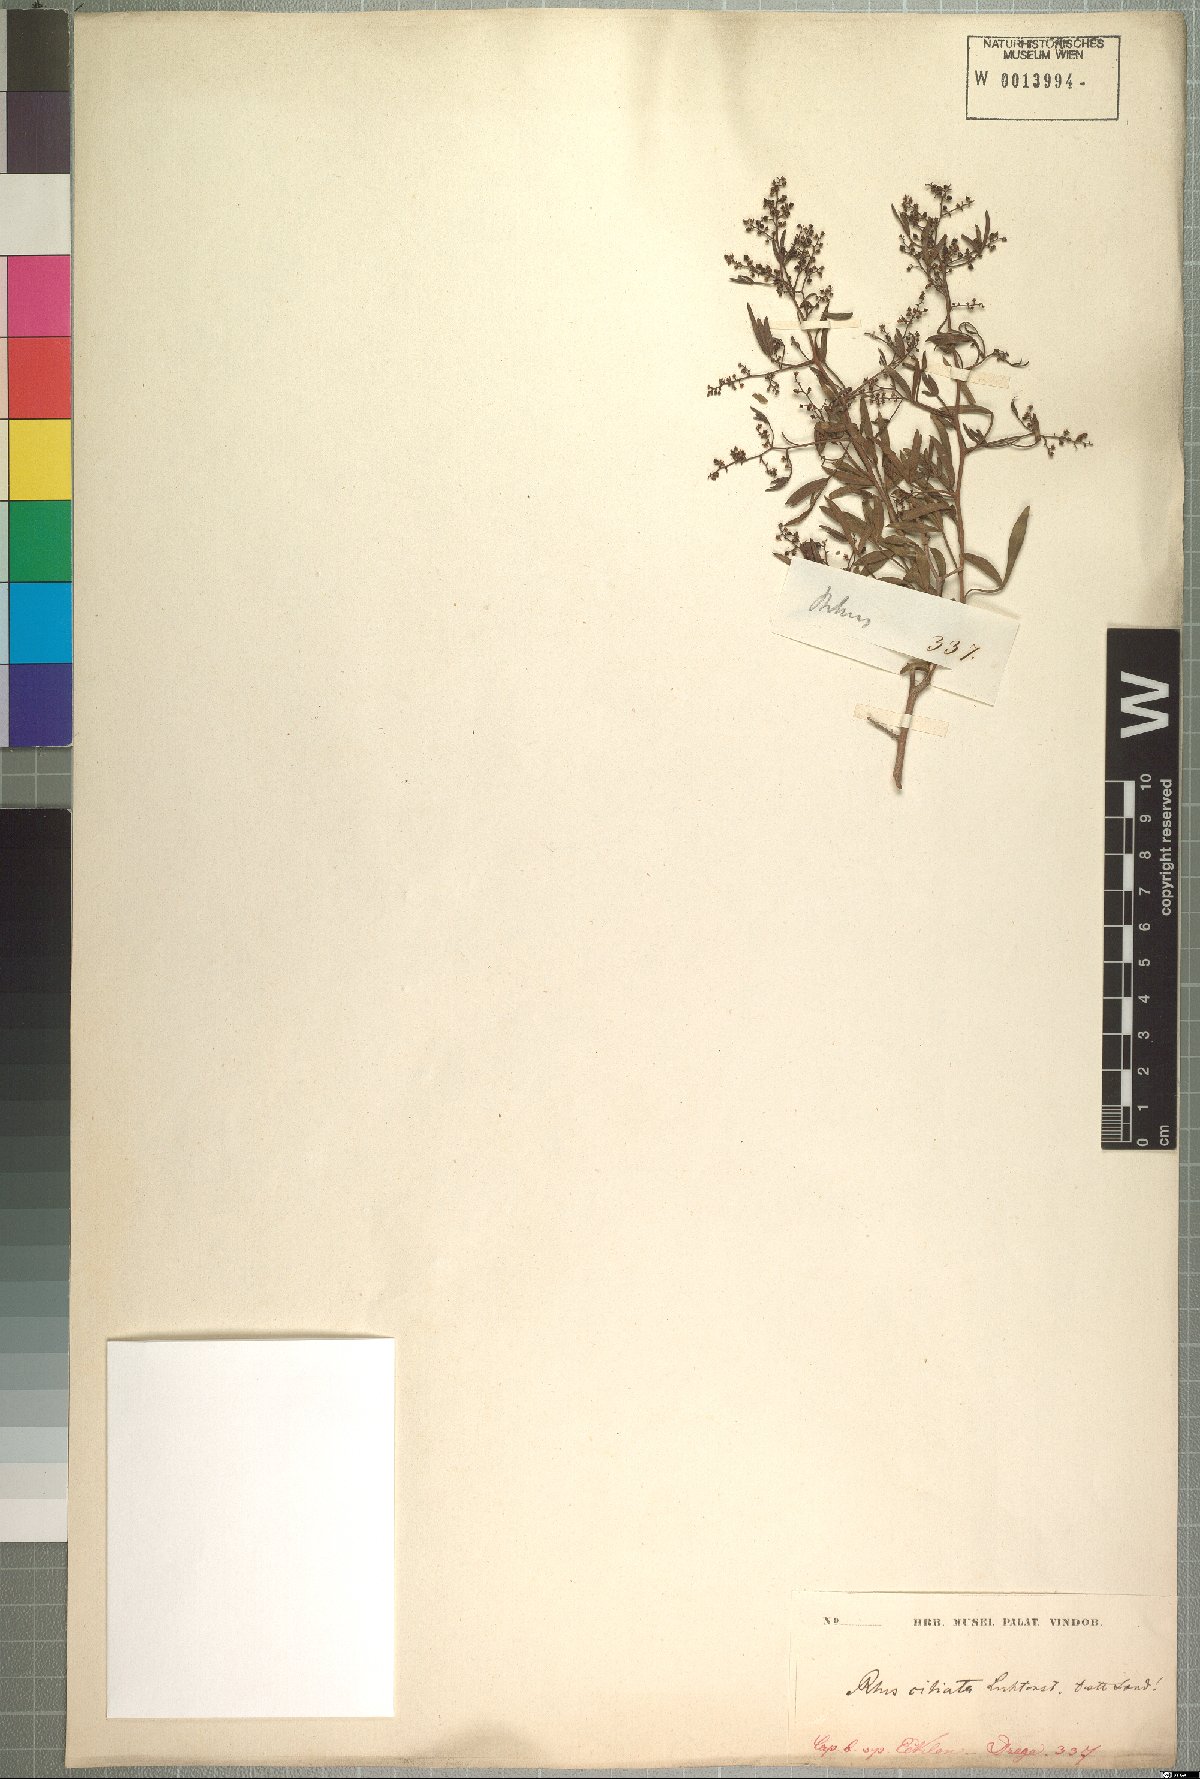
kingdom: Plantae
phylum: Tracheophyta
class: Magnoliopsida
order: Sapindales
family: Anacardiaceae
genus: Searsia
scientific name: Searsia ciliata
